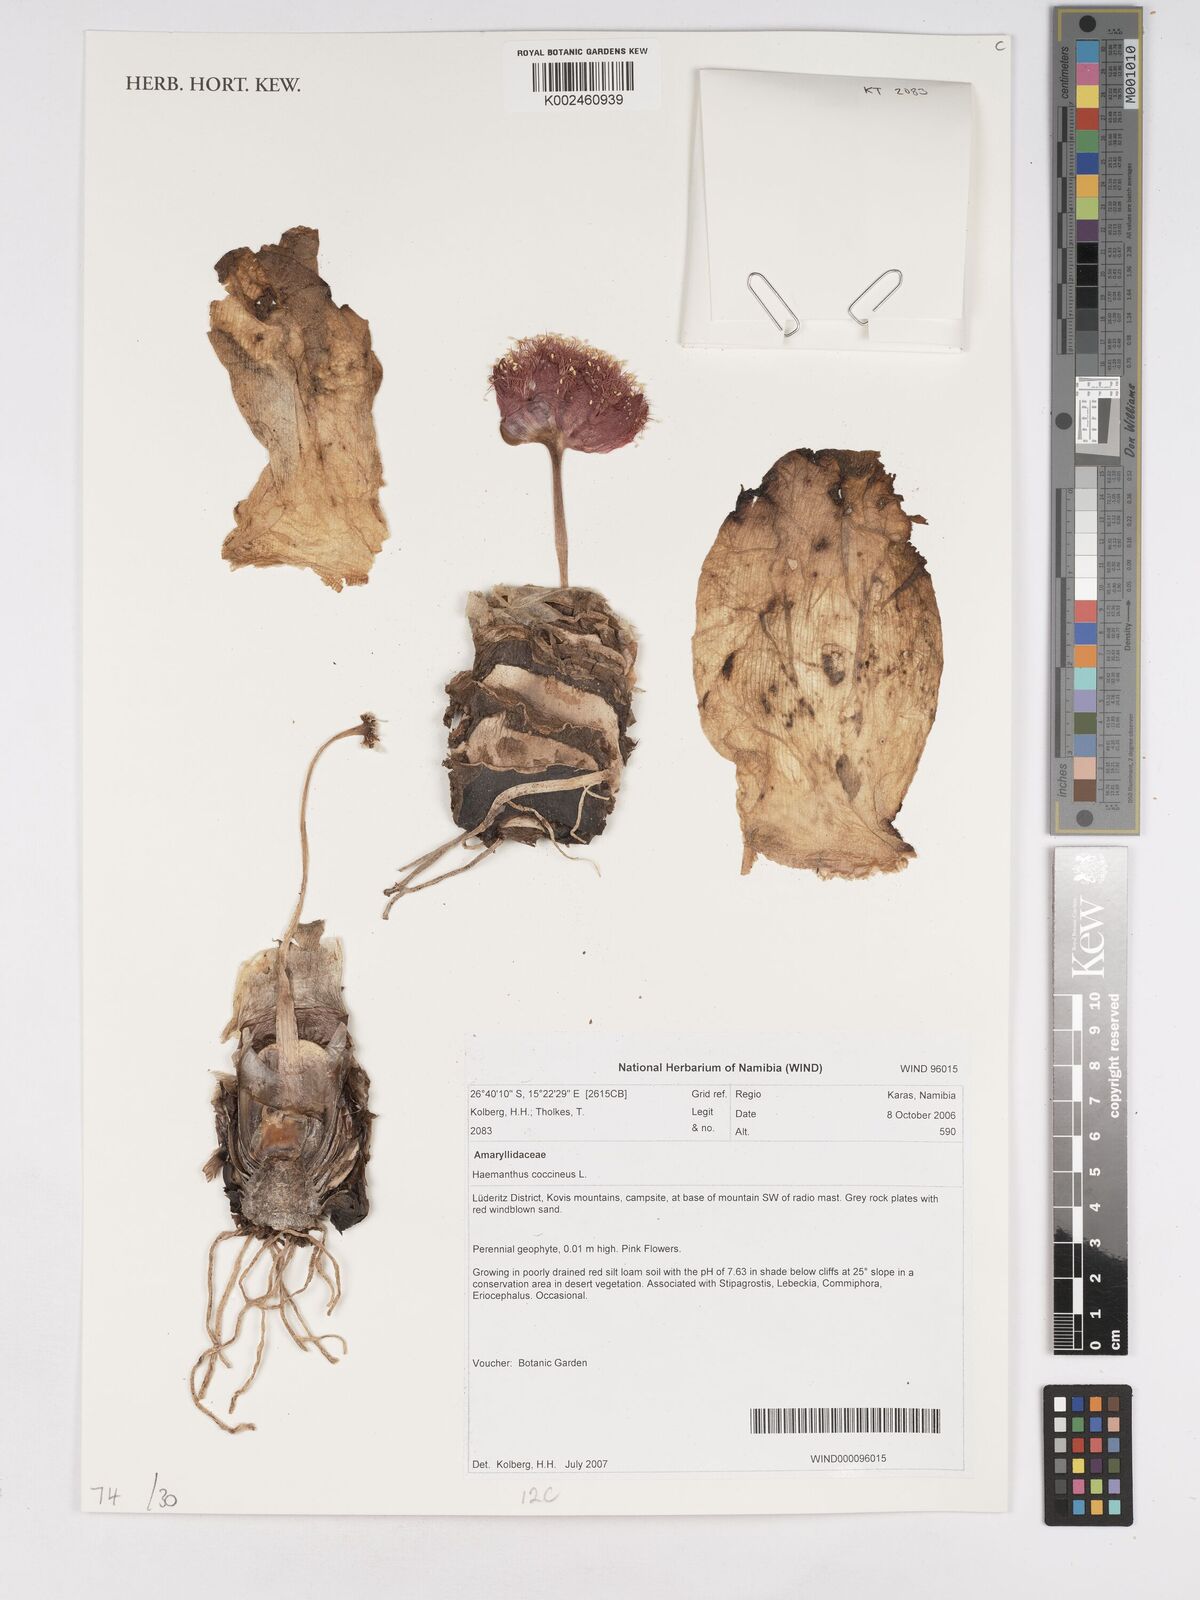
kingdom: Plantae
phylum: Tracheophyta
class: Liliopsida
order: Asparagales
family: Amaryllidaceae
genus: Haemanthus
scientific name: Haemanthus coccineus
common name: Cape-tulip
